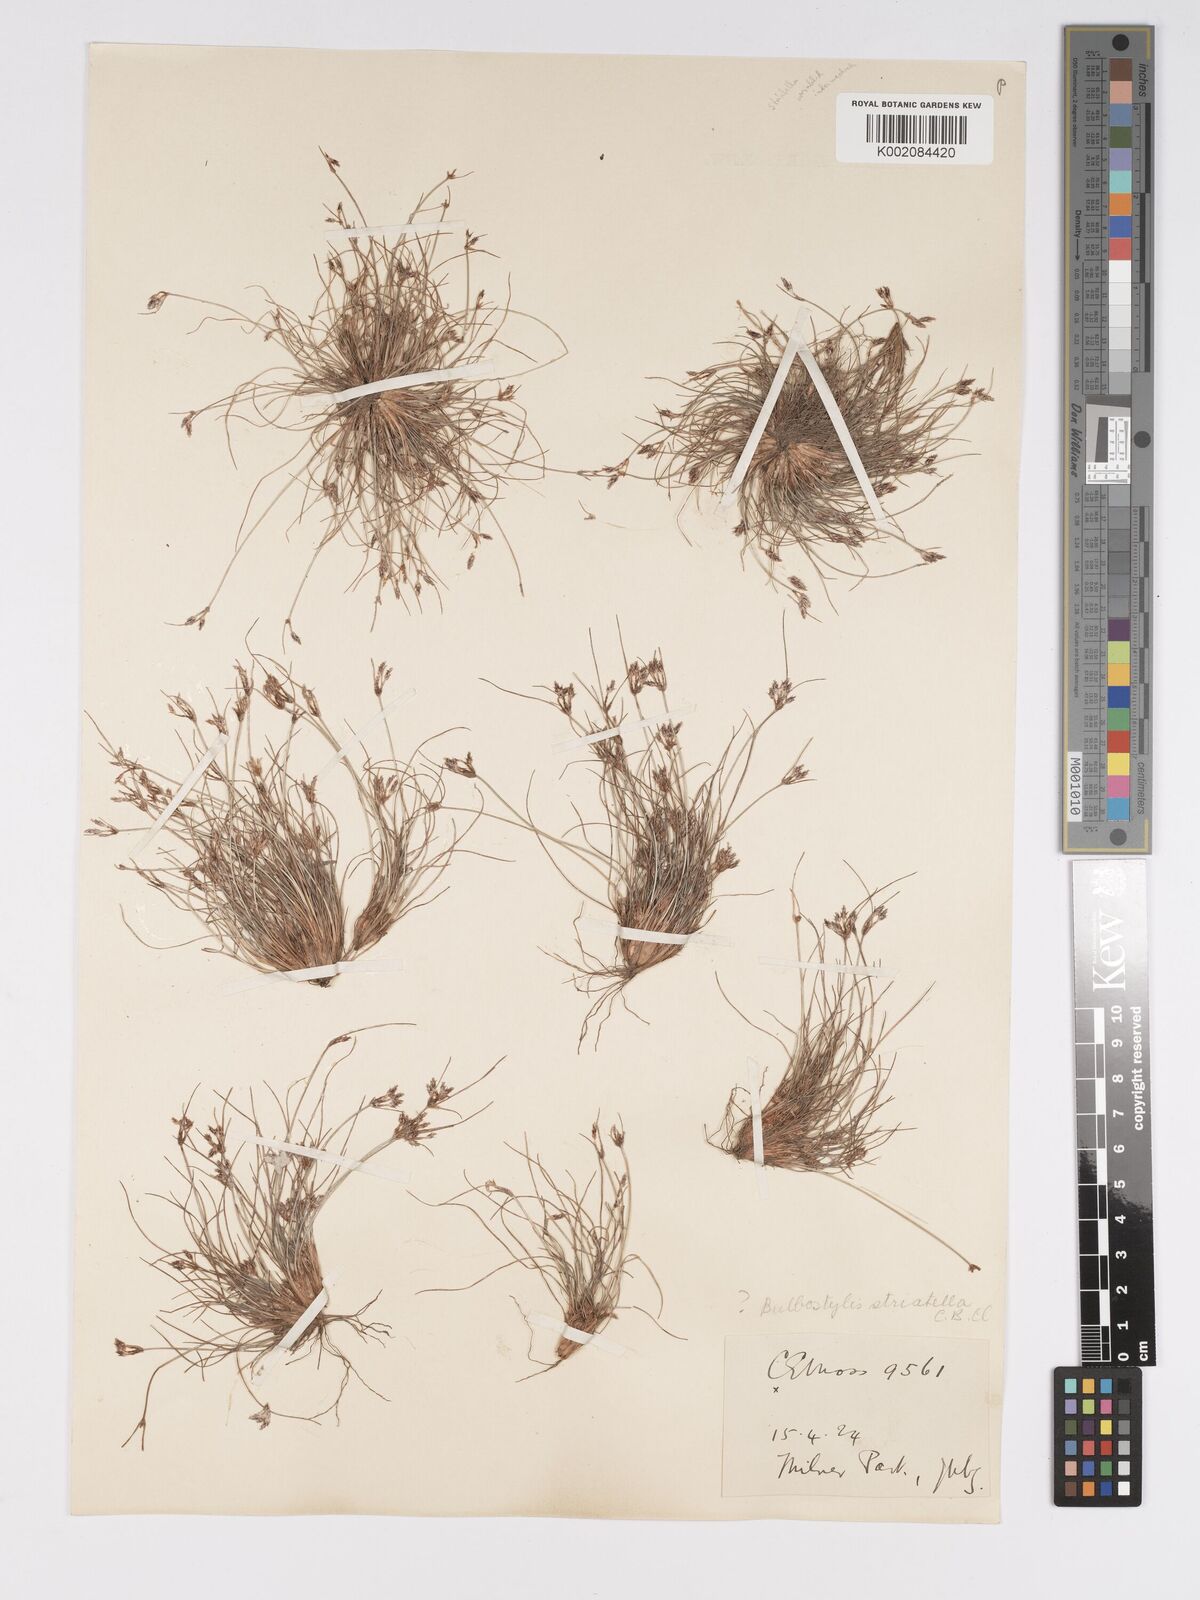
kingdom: Plantae
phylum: Tracheophyta
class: Liliopsida
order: Poales
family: Cyperaceae
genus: Bulbostylis
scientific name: Bulbostylis humilis
